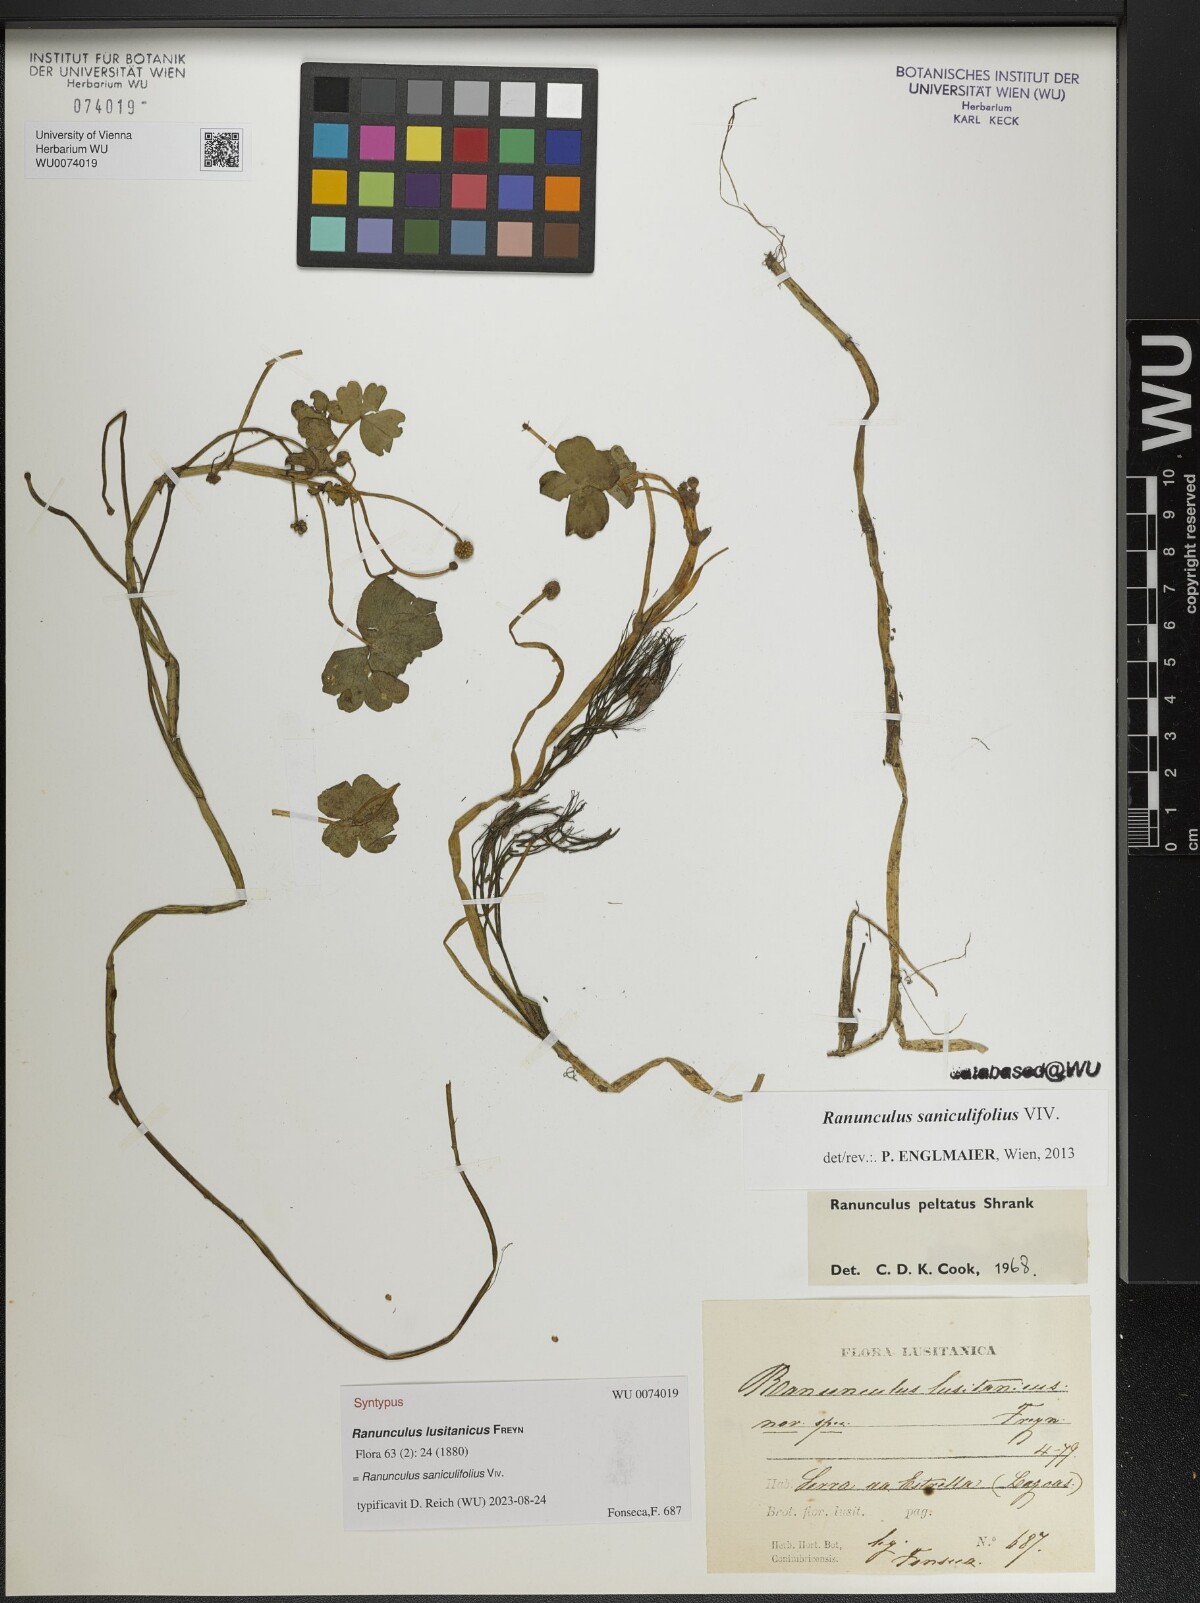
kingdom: Plantae
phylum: Tracheophyta
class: Magnoliopsida
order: Ranunculales
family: Ranunculaceae
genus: Ranunculus
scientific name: Ranunculus ololeucos
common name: White-flowered buttercup
